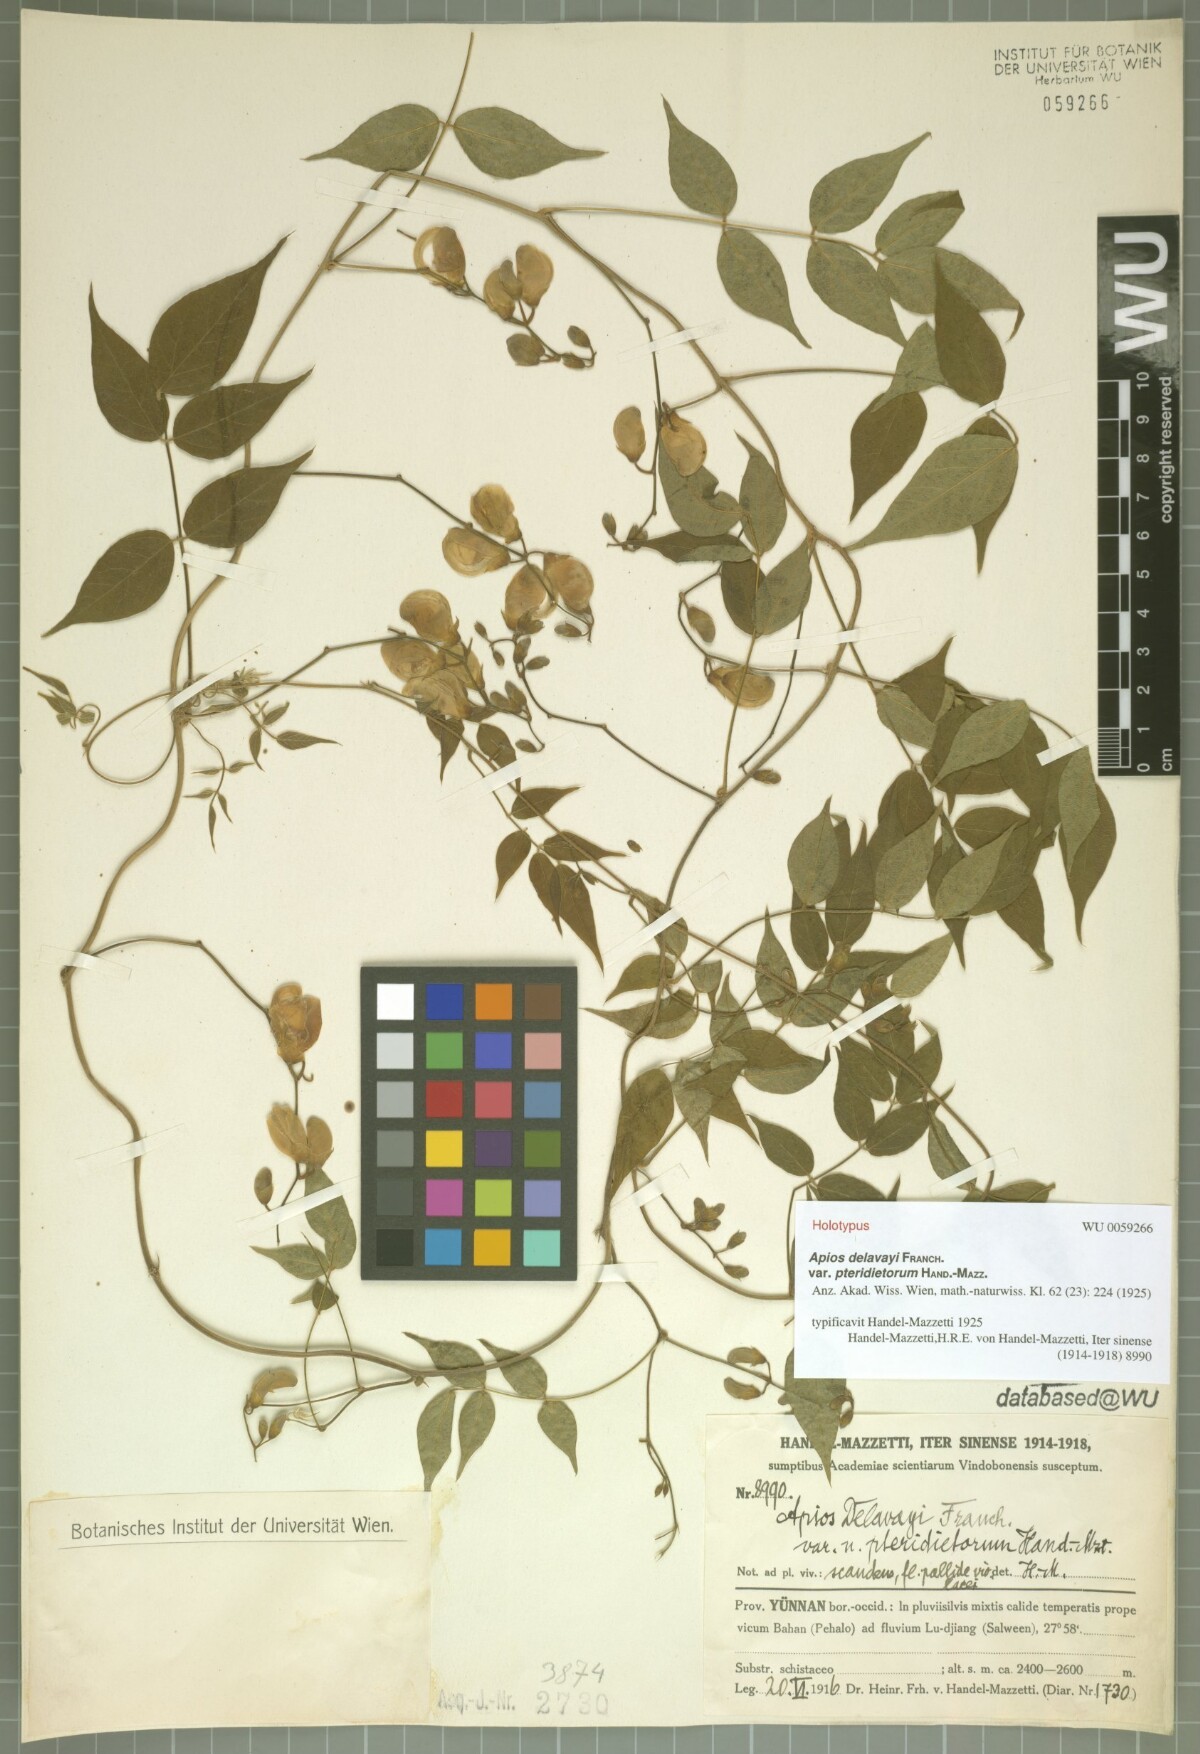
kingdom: Plantae
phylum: Tracheophyta
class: Magnoliopsida
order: Fabales
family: Fabaceae
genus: Apios
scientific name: Apios delavayi
